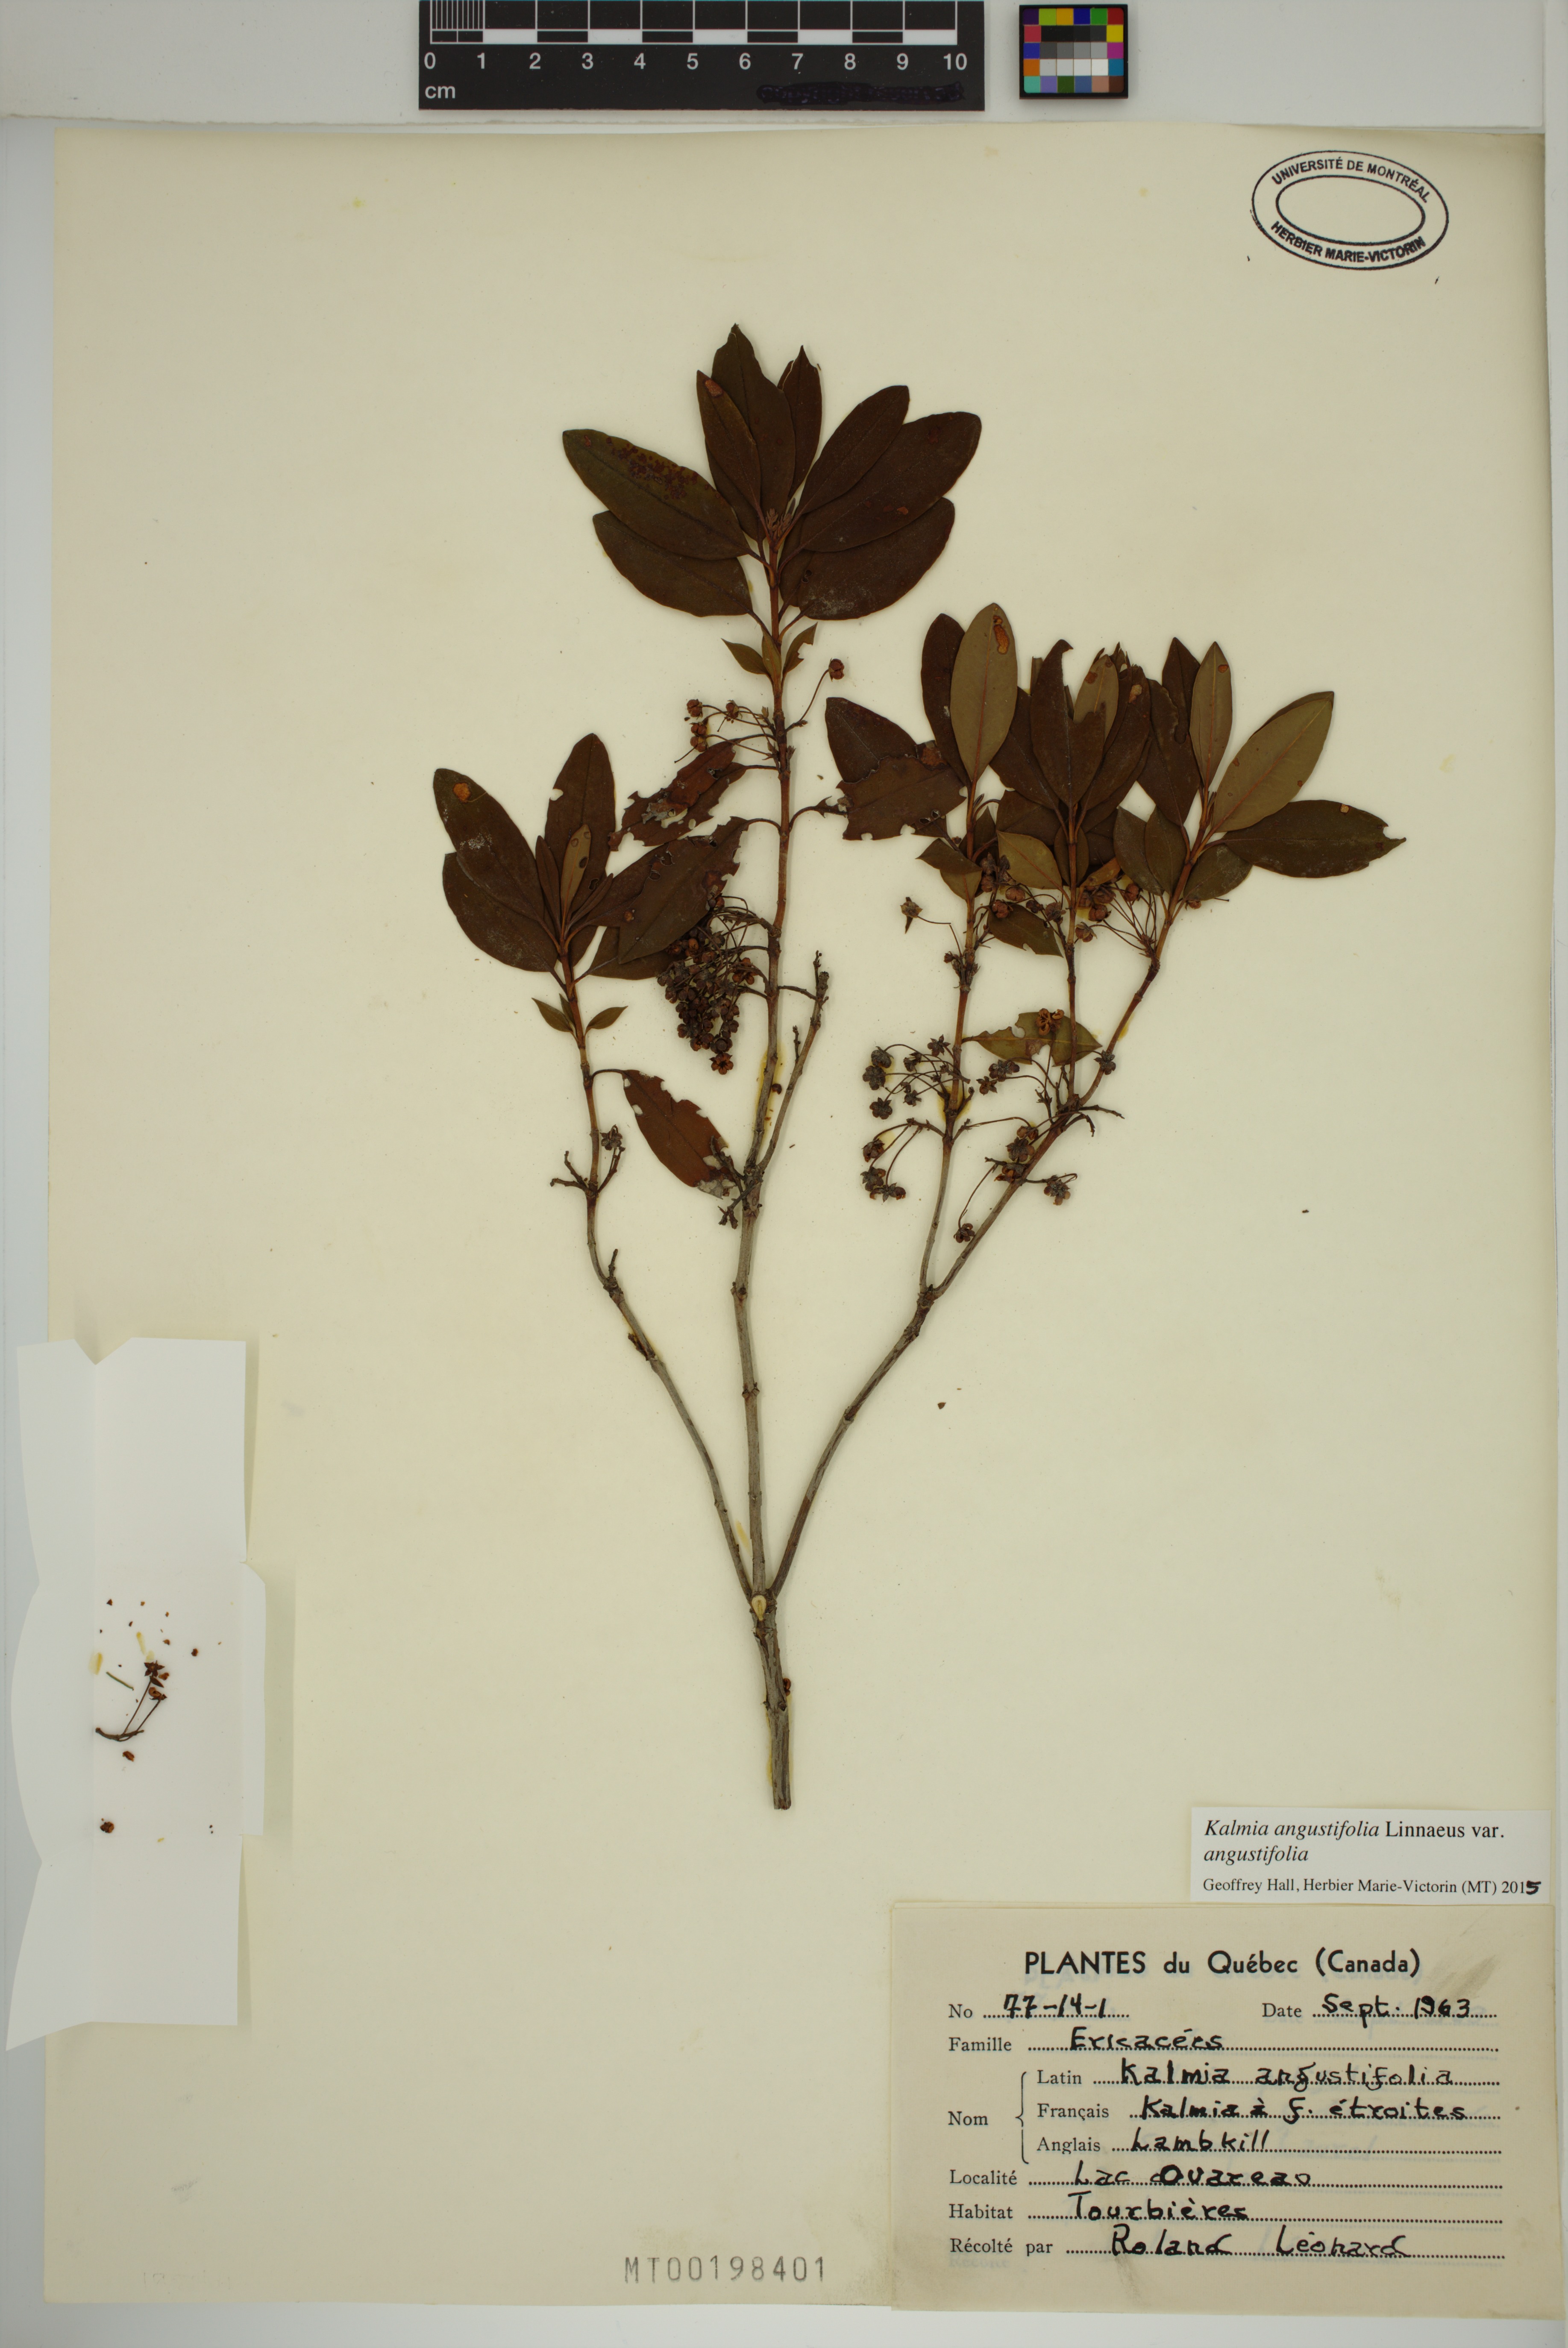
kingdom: Plantae
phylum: Tracheophyta
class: Magnoliopsida
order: Ericales
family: Ericaceae
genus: Kalmia
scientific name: Kalmia angustifolia
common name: Sheep-laurel
